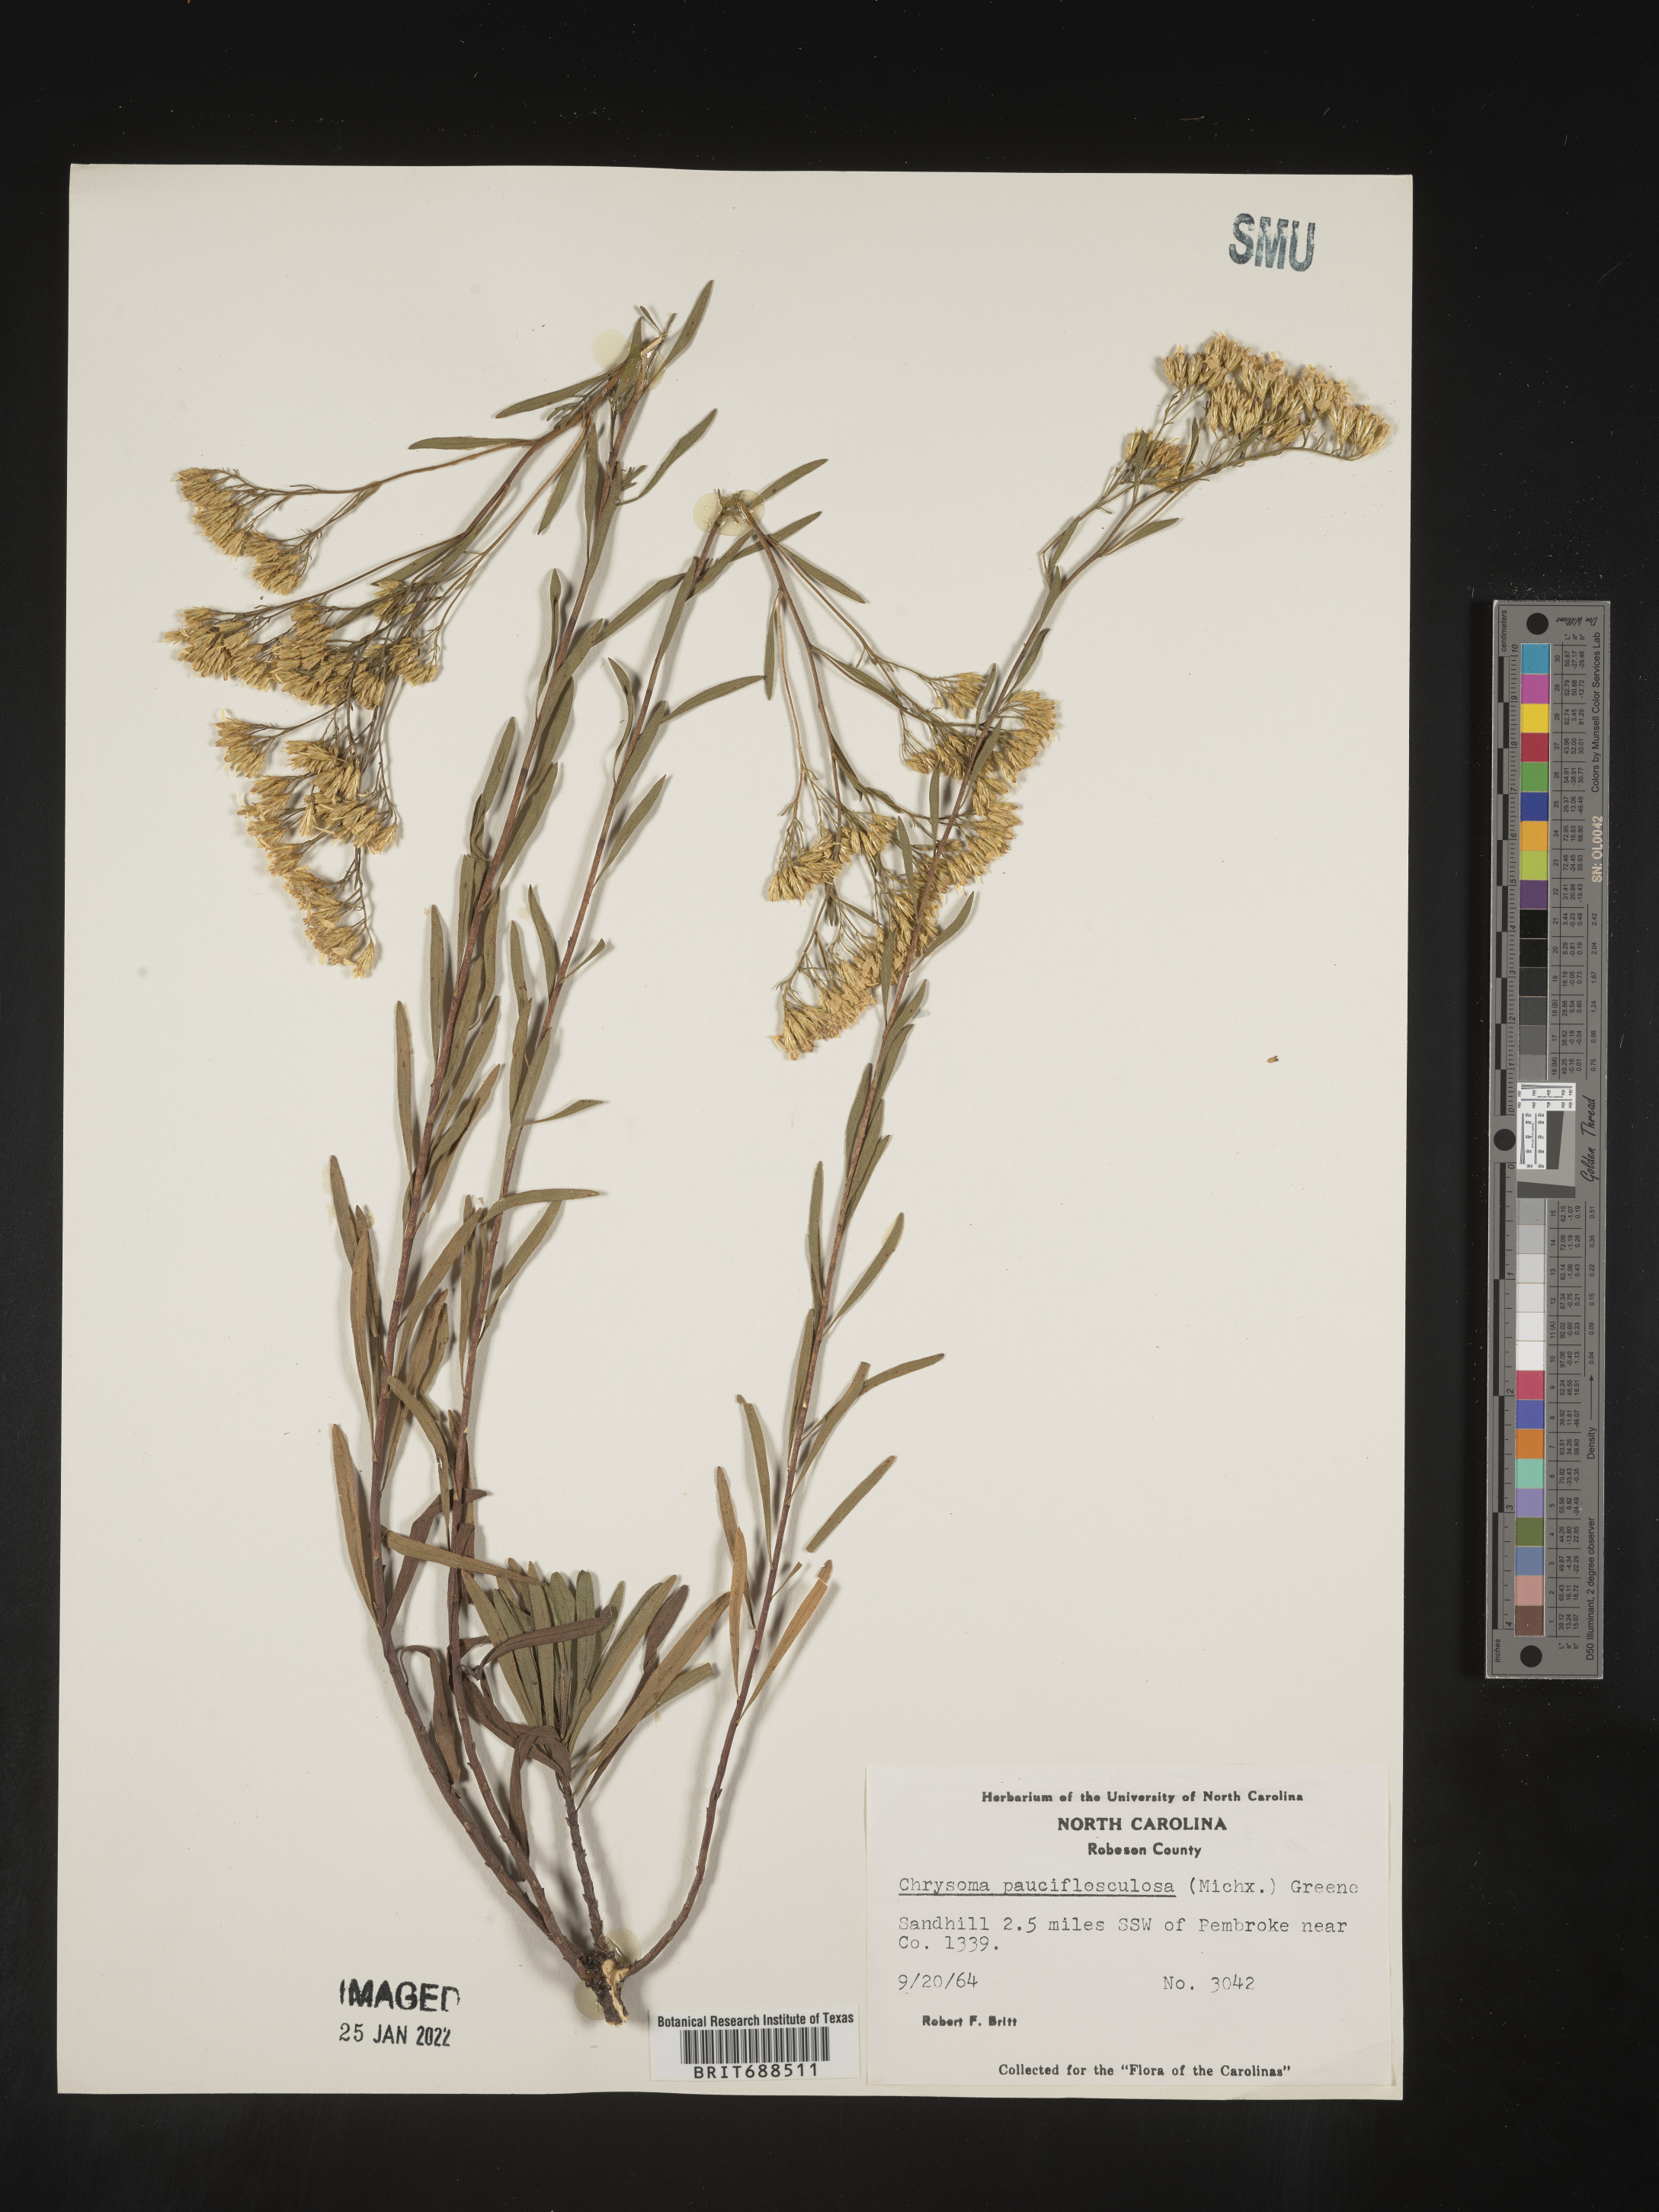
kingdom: Plantae
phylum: Tracheophyta
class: Magnoliopsida
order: Asterales
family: Asteraceae
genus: Chrysoma
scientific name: Chrysoma pauciflosculosa
